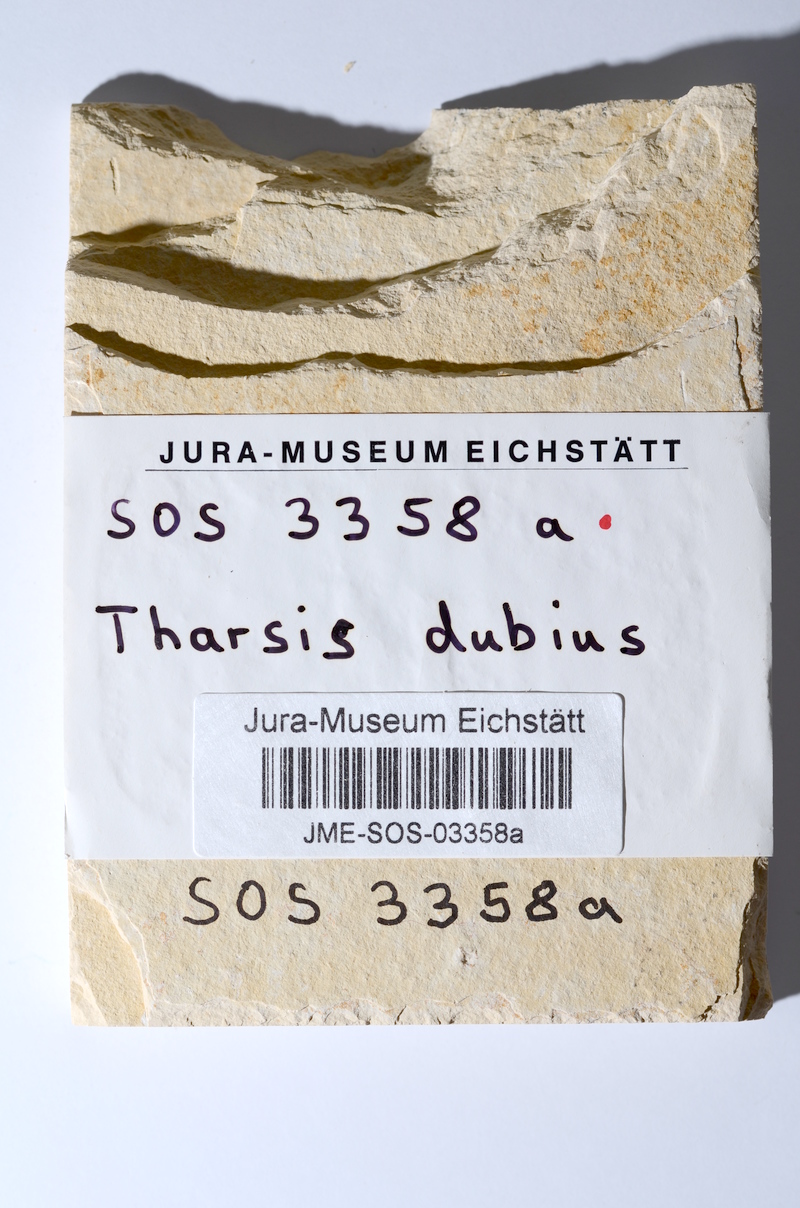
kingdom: Animalia
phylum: Chordata
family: Ascalaboidae
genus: Tharsis
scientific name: Tharsis dubius
